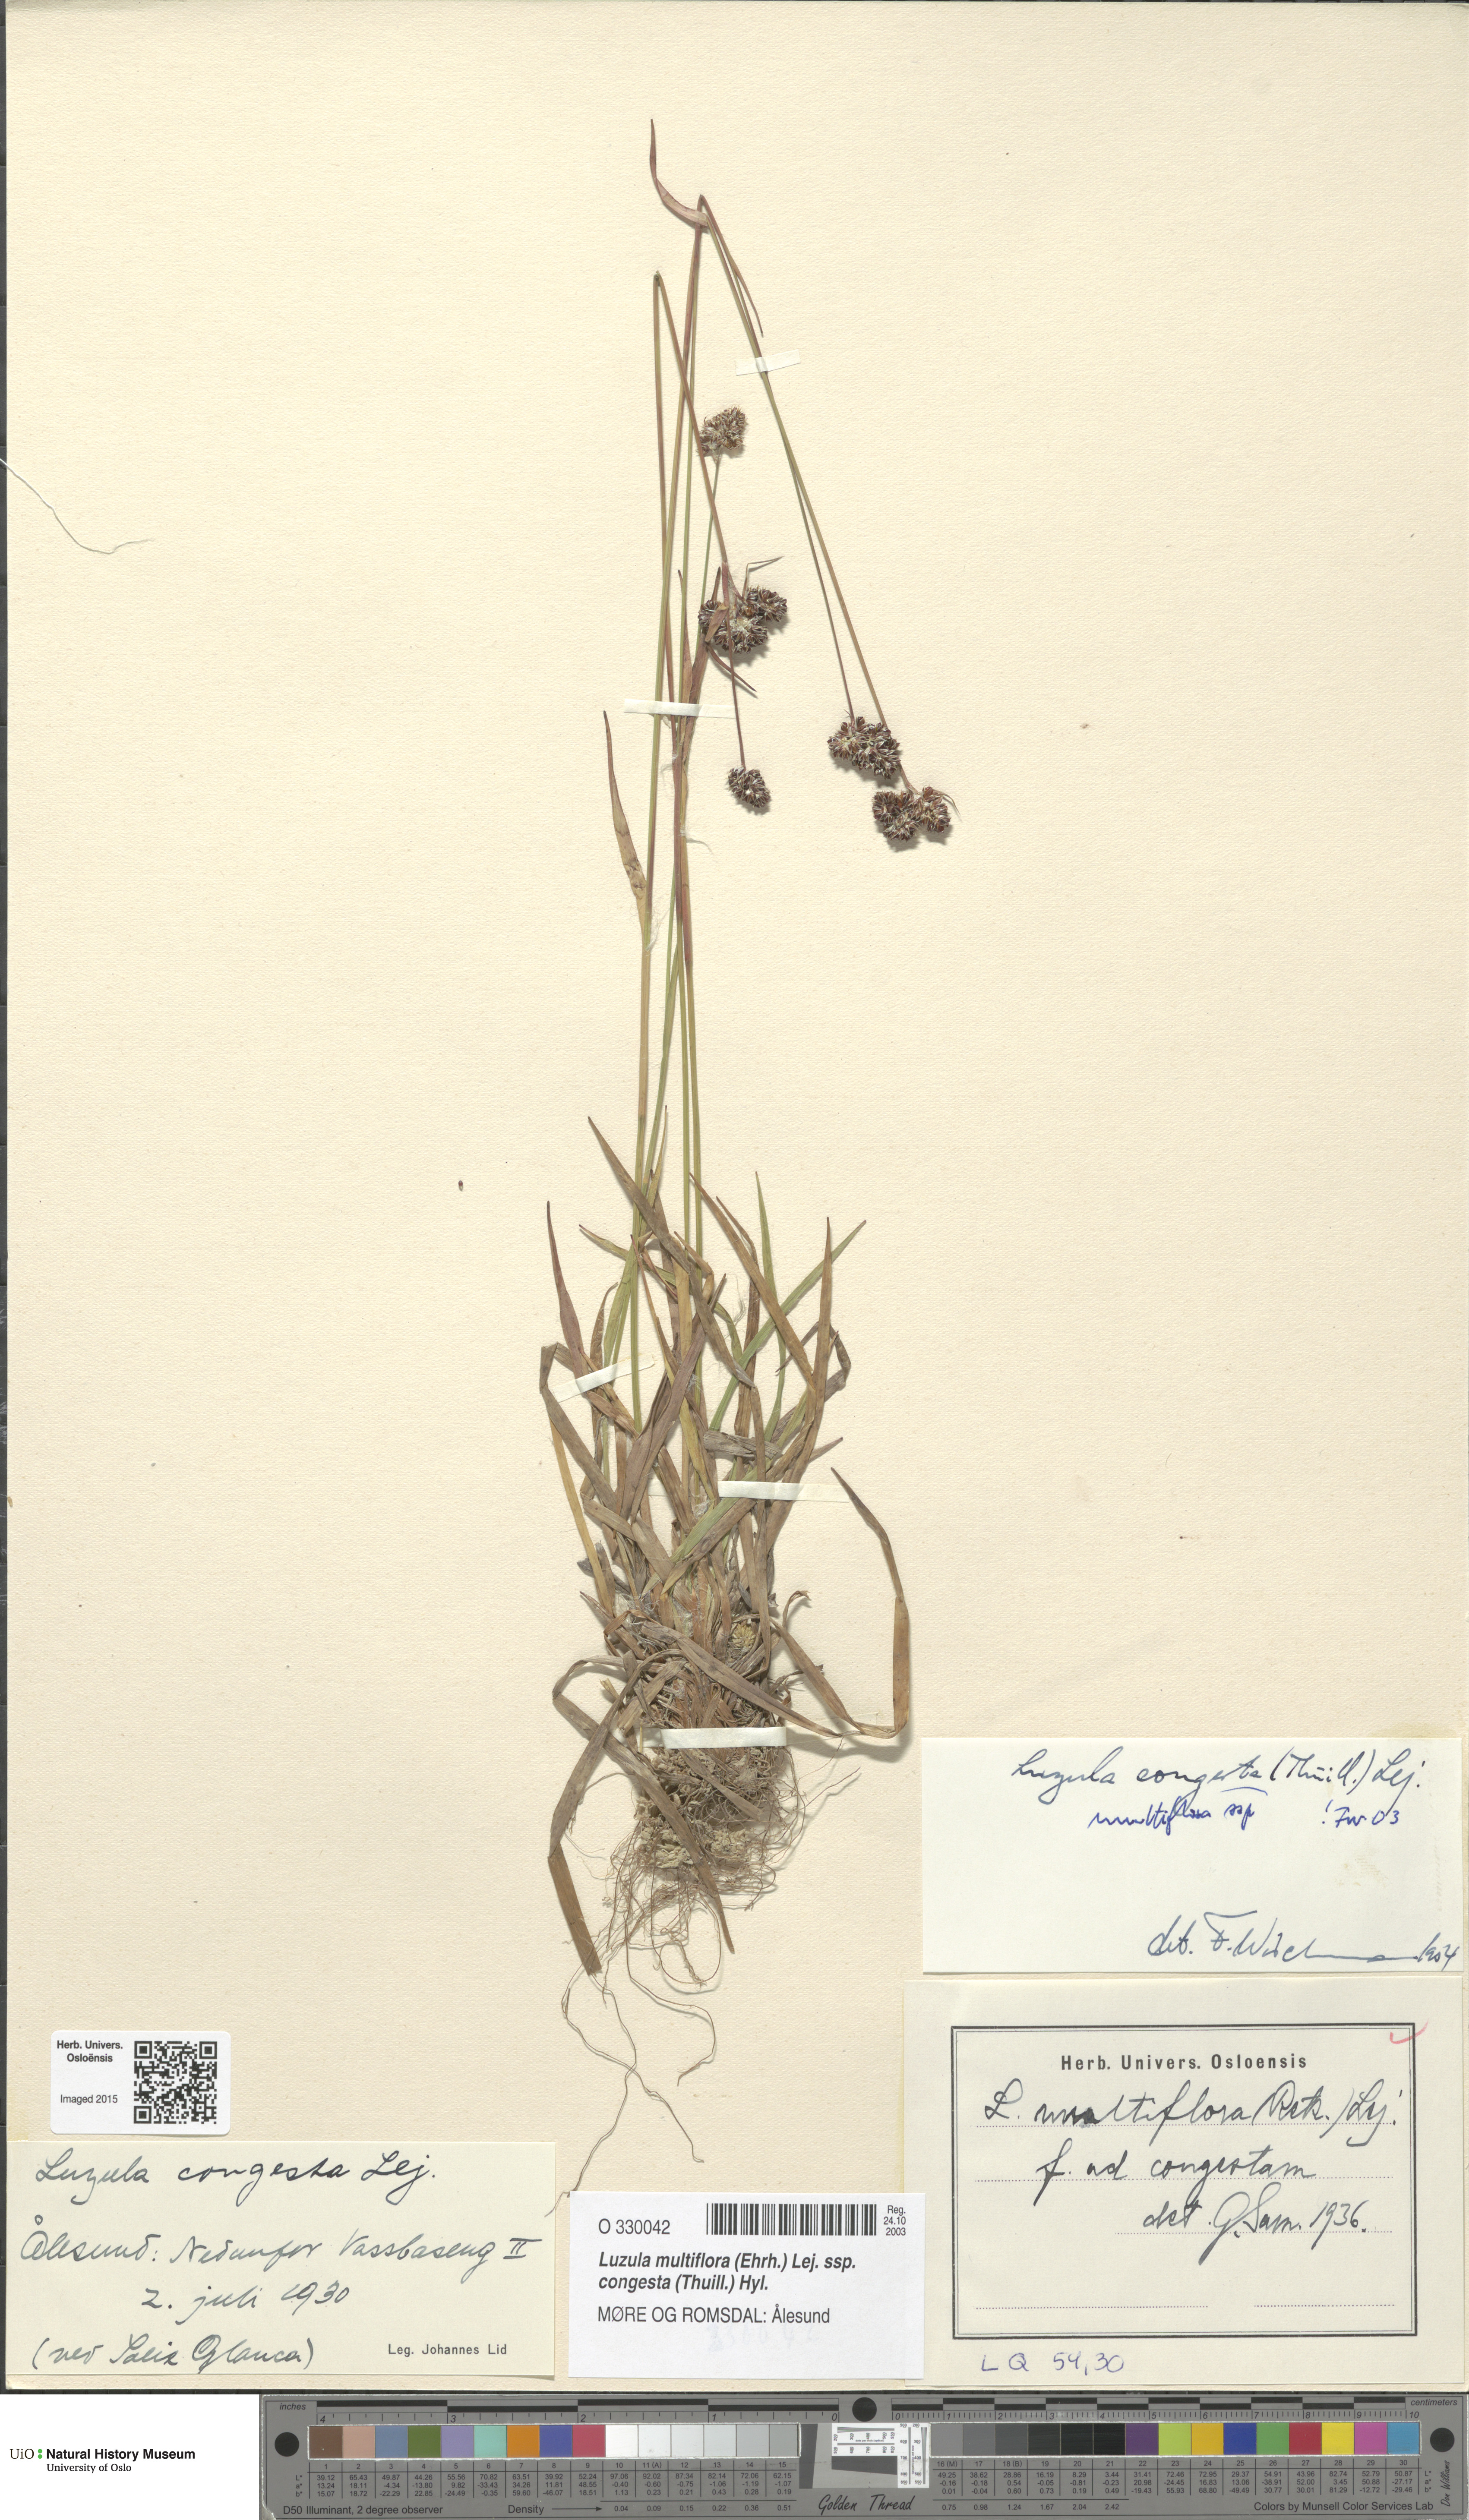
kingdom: Plantae
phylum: Tracheophyta
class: Liliopsida
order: Poales
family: Juncaceae
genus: Luzula
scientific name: Luzula congesta
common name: Heath woodrush
